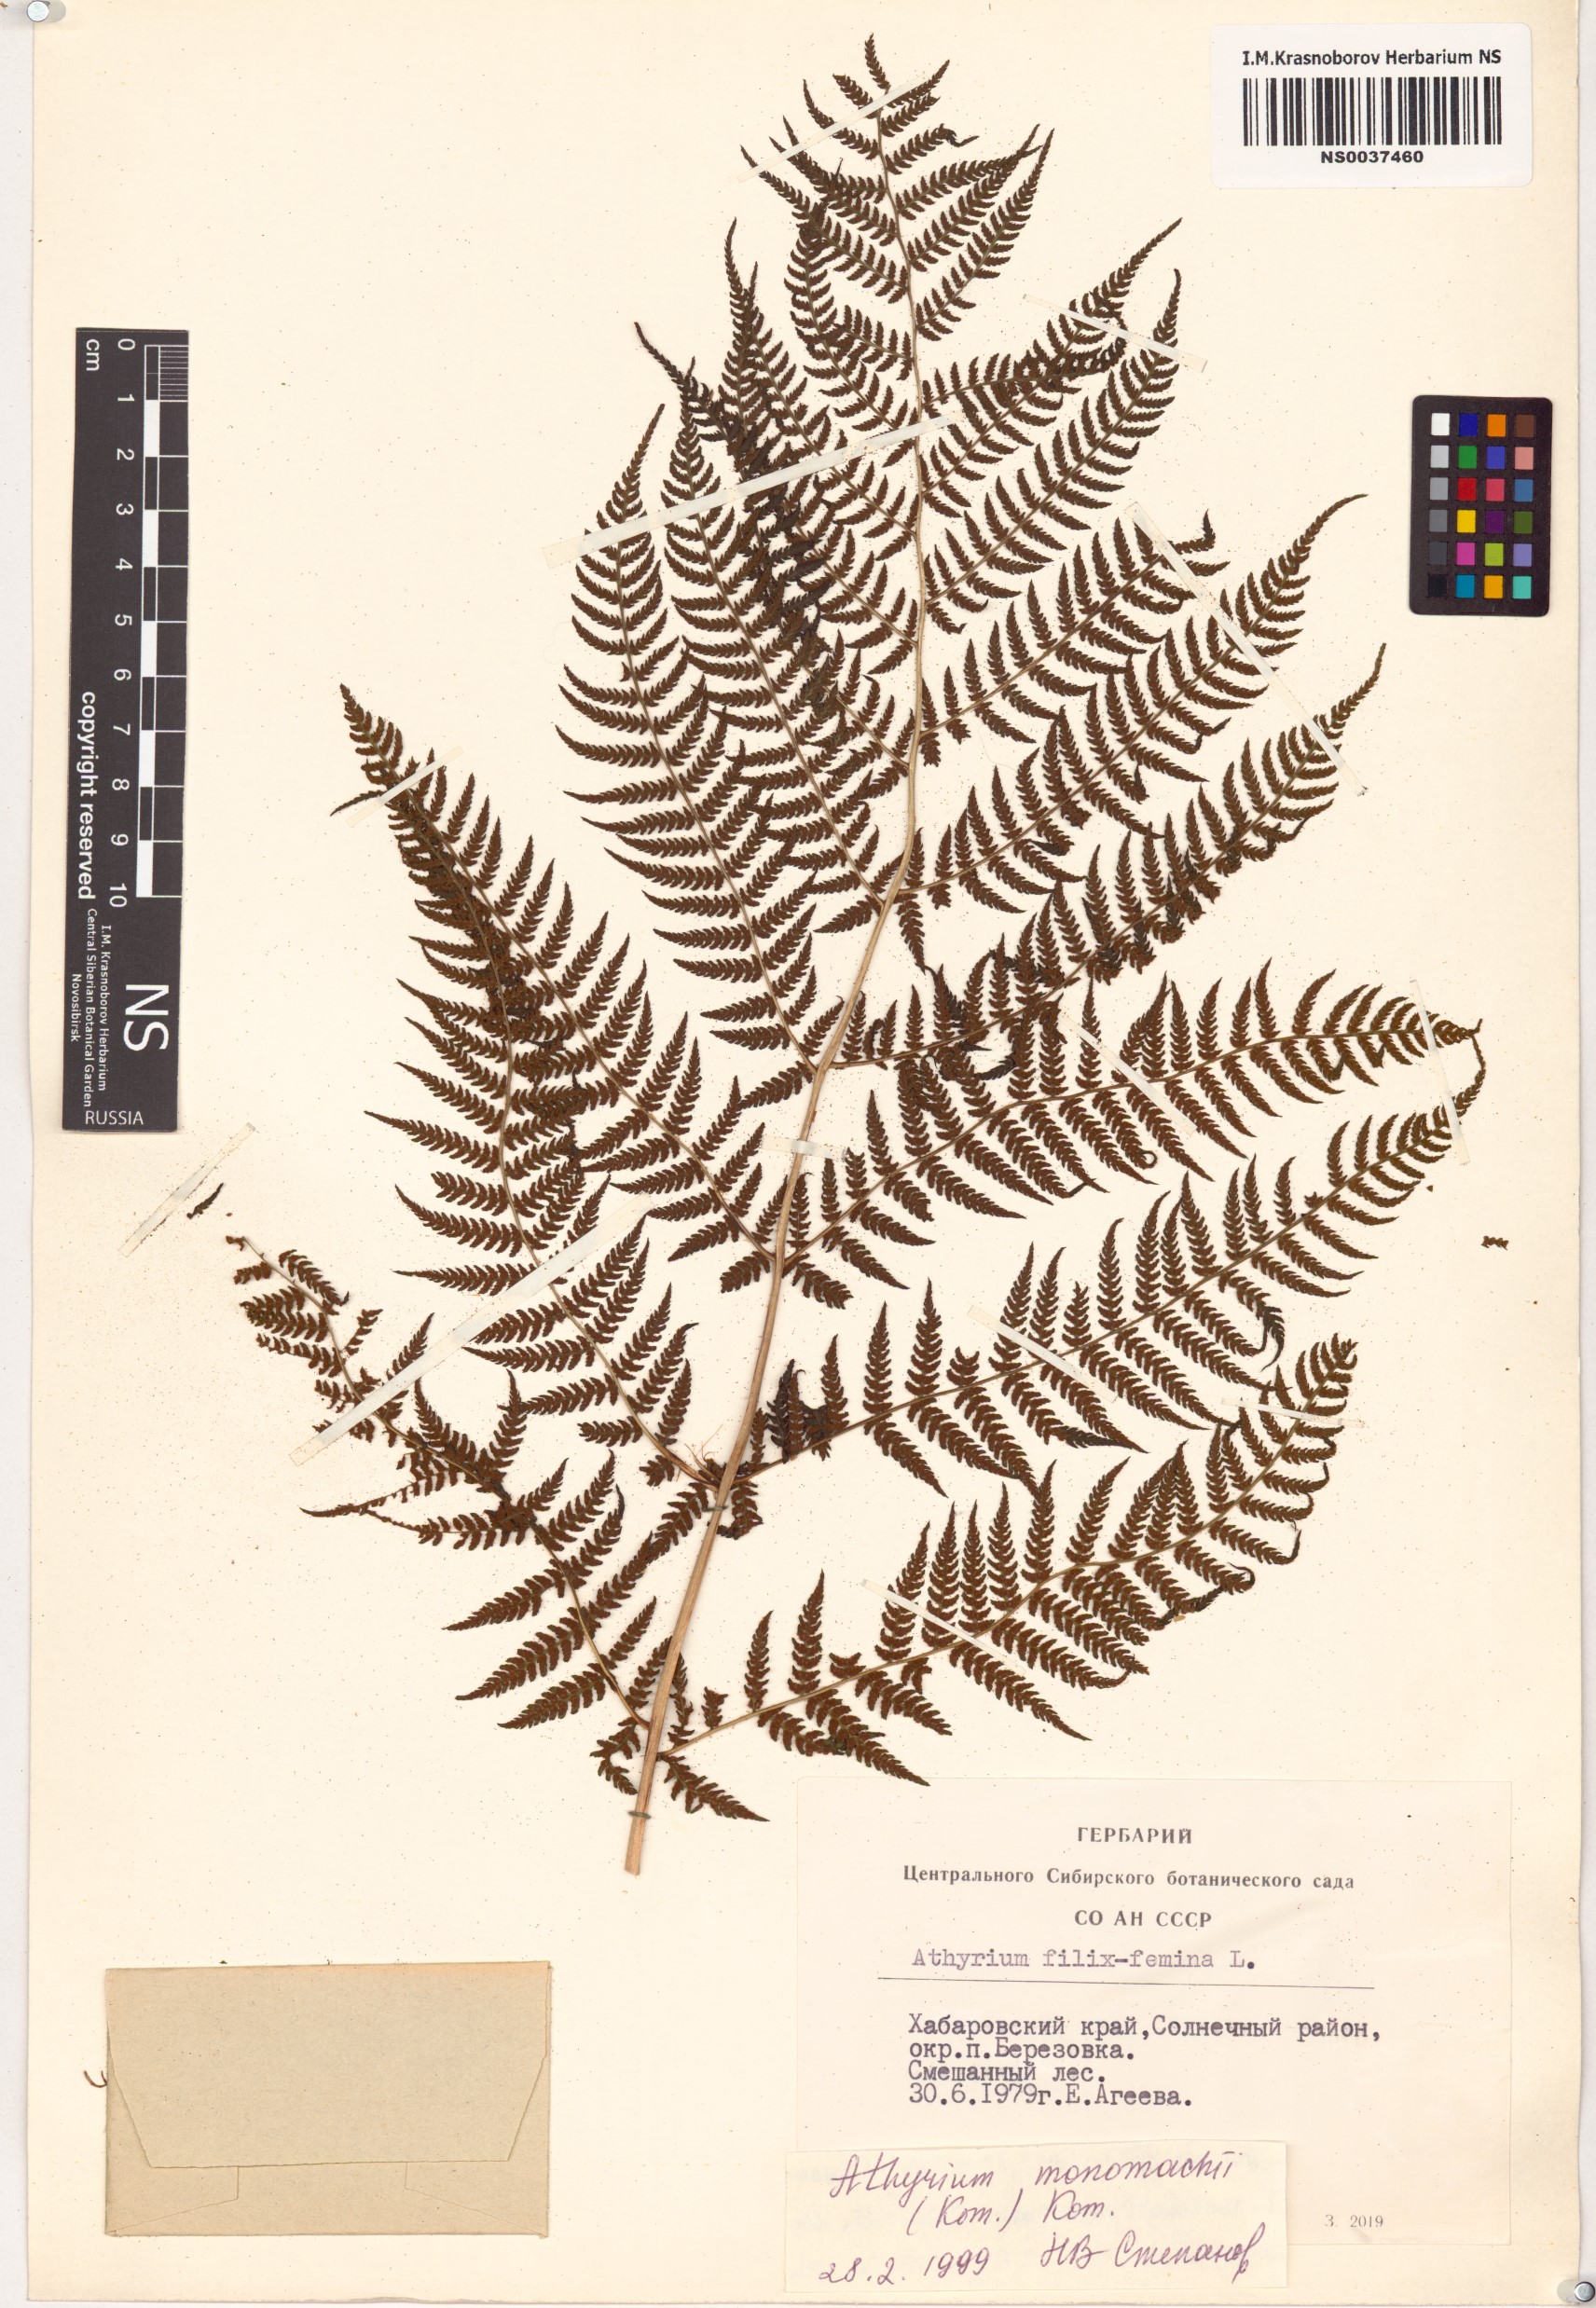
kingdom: Plantae
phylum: Tracheophyta
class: Polypodiopsida
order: Polypodiales
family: Athyriaceae
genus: Athyrium
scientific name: Athyrium monomachii
